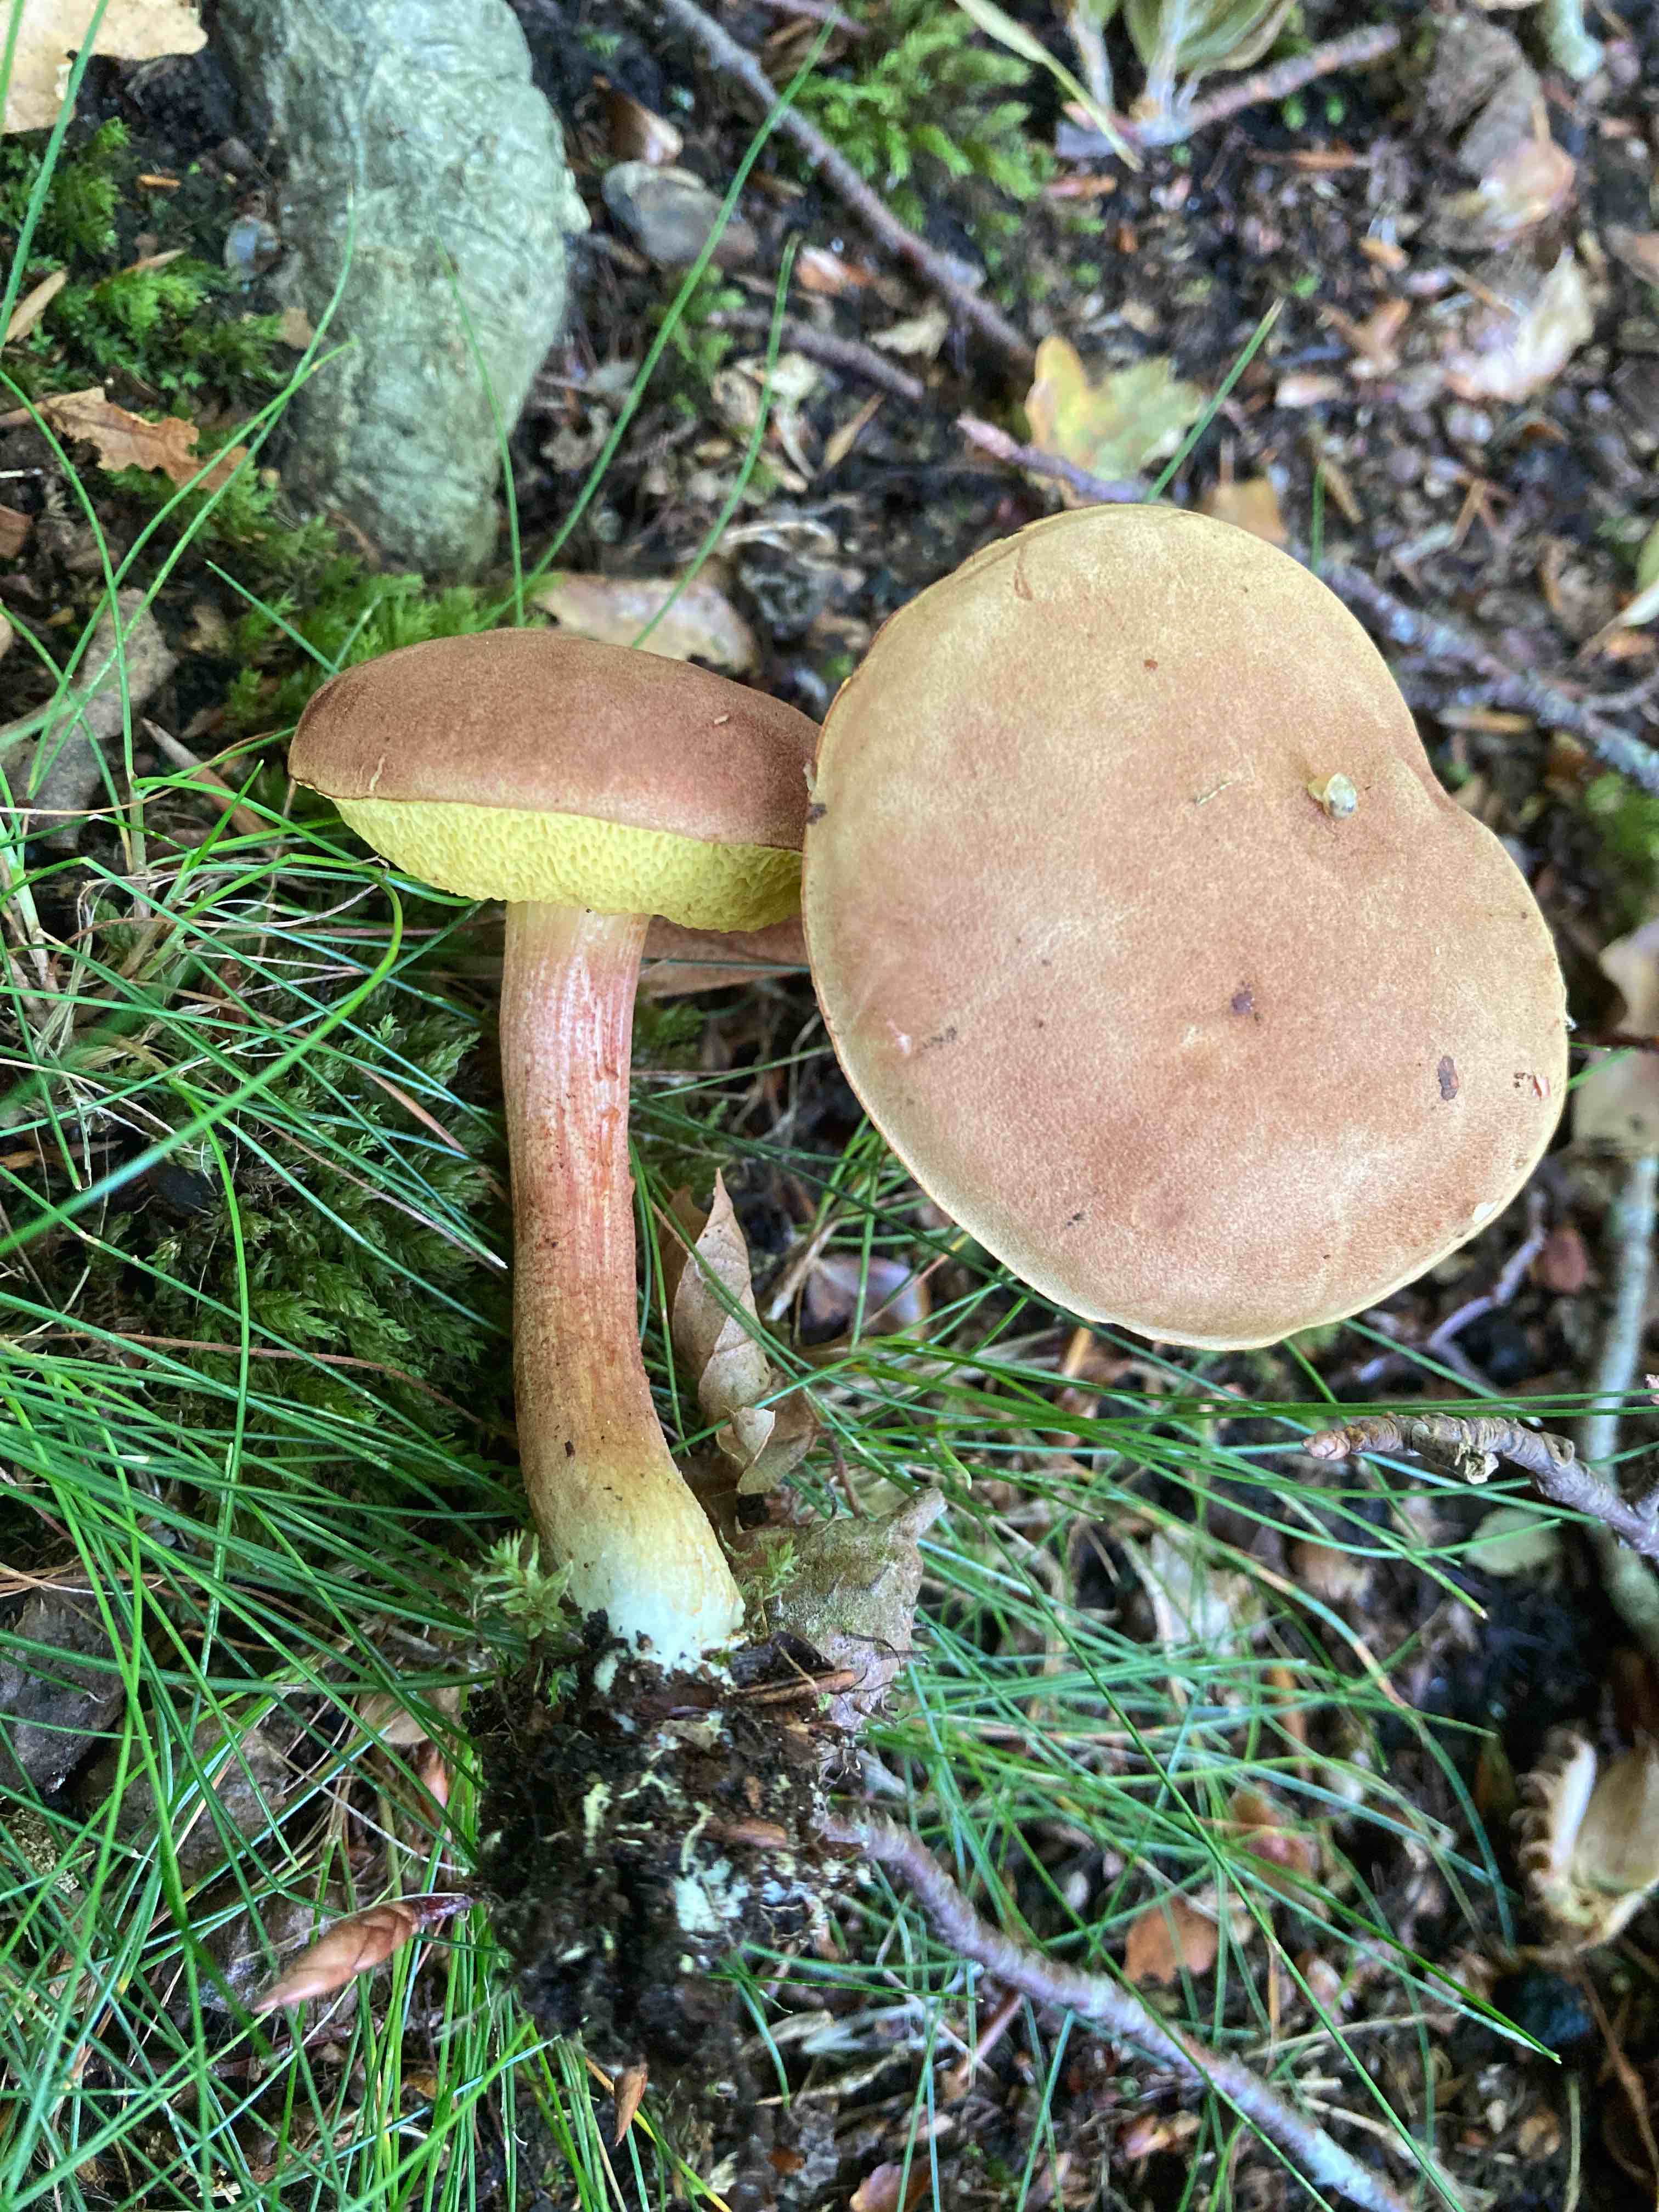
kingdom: Fungi
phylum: Basidiomycota
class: Agaricomycetes
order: Boletales
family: Boletaceae
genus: Xerocomus
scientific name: Xerocomus ferrugineus
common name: vaskeskinds-rørhat
